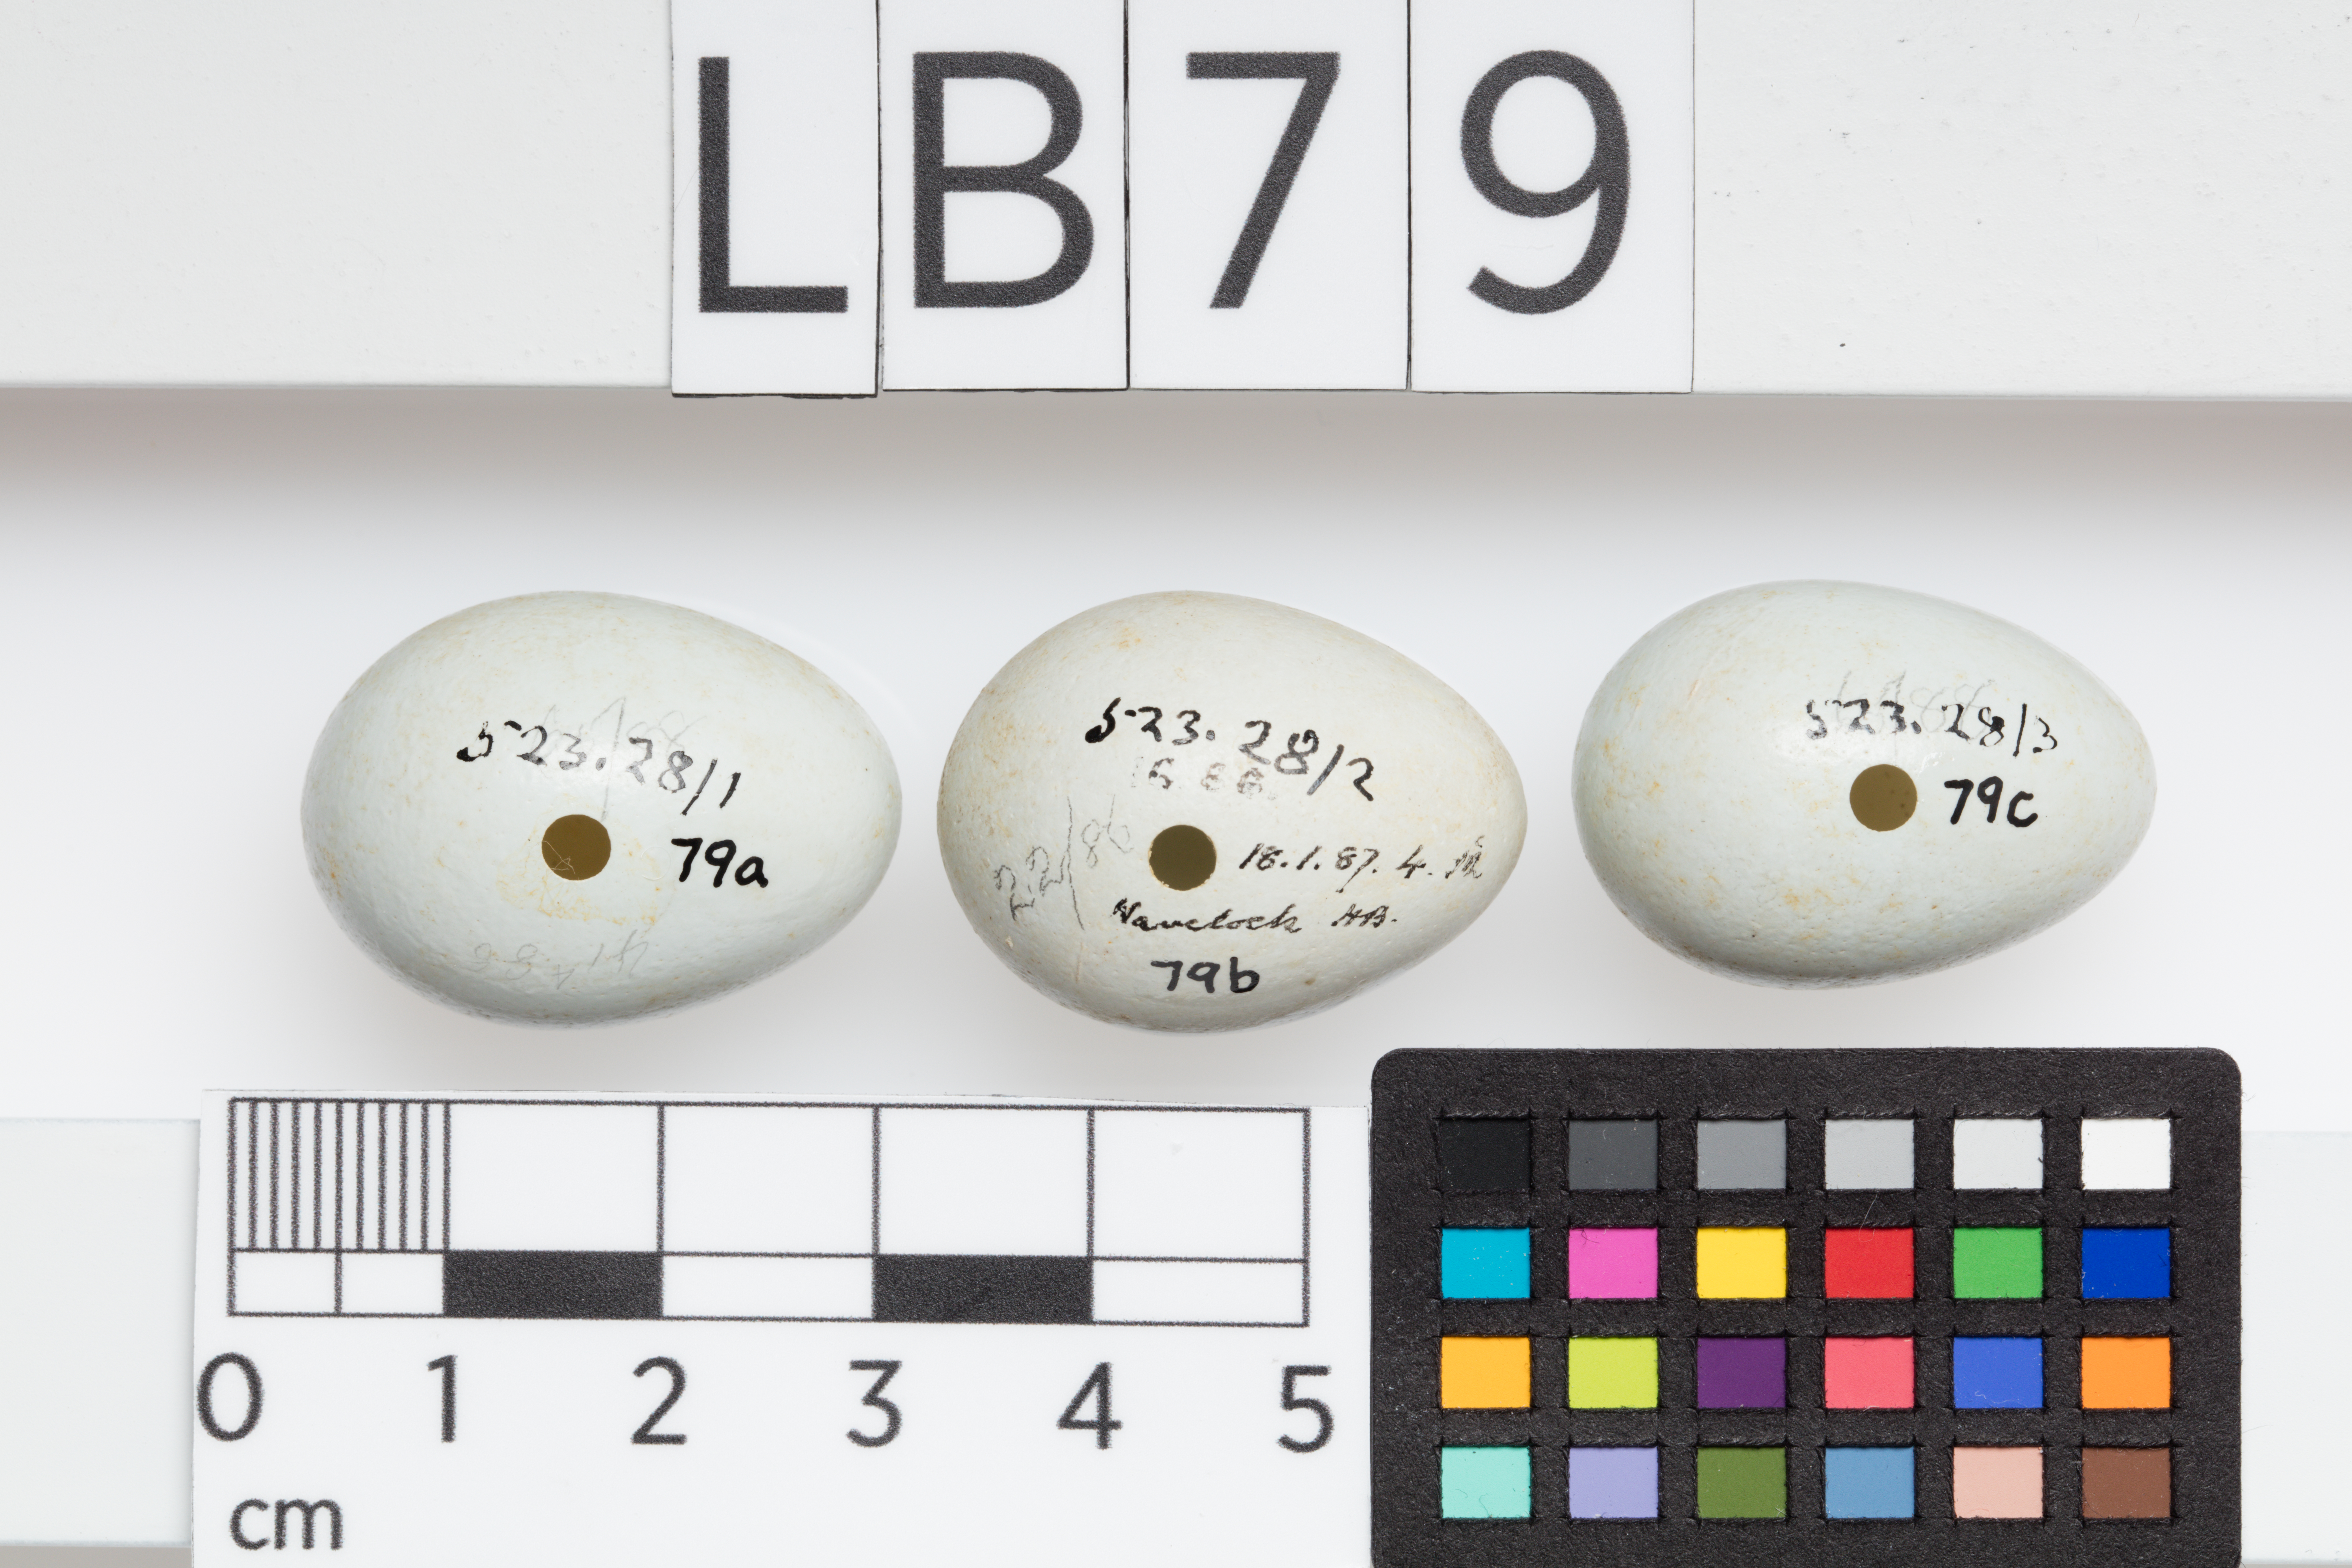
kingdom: Animalia
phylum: Chordata
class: Aves
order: Passeriformes
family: Sturnidae
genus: Sturnus
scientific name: Sturnus vulgaris
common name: Common starling
